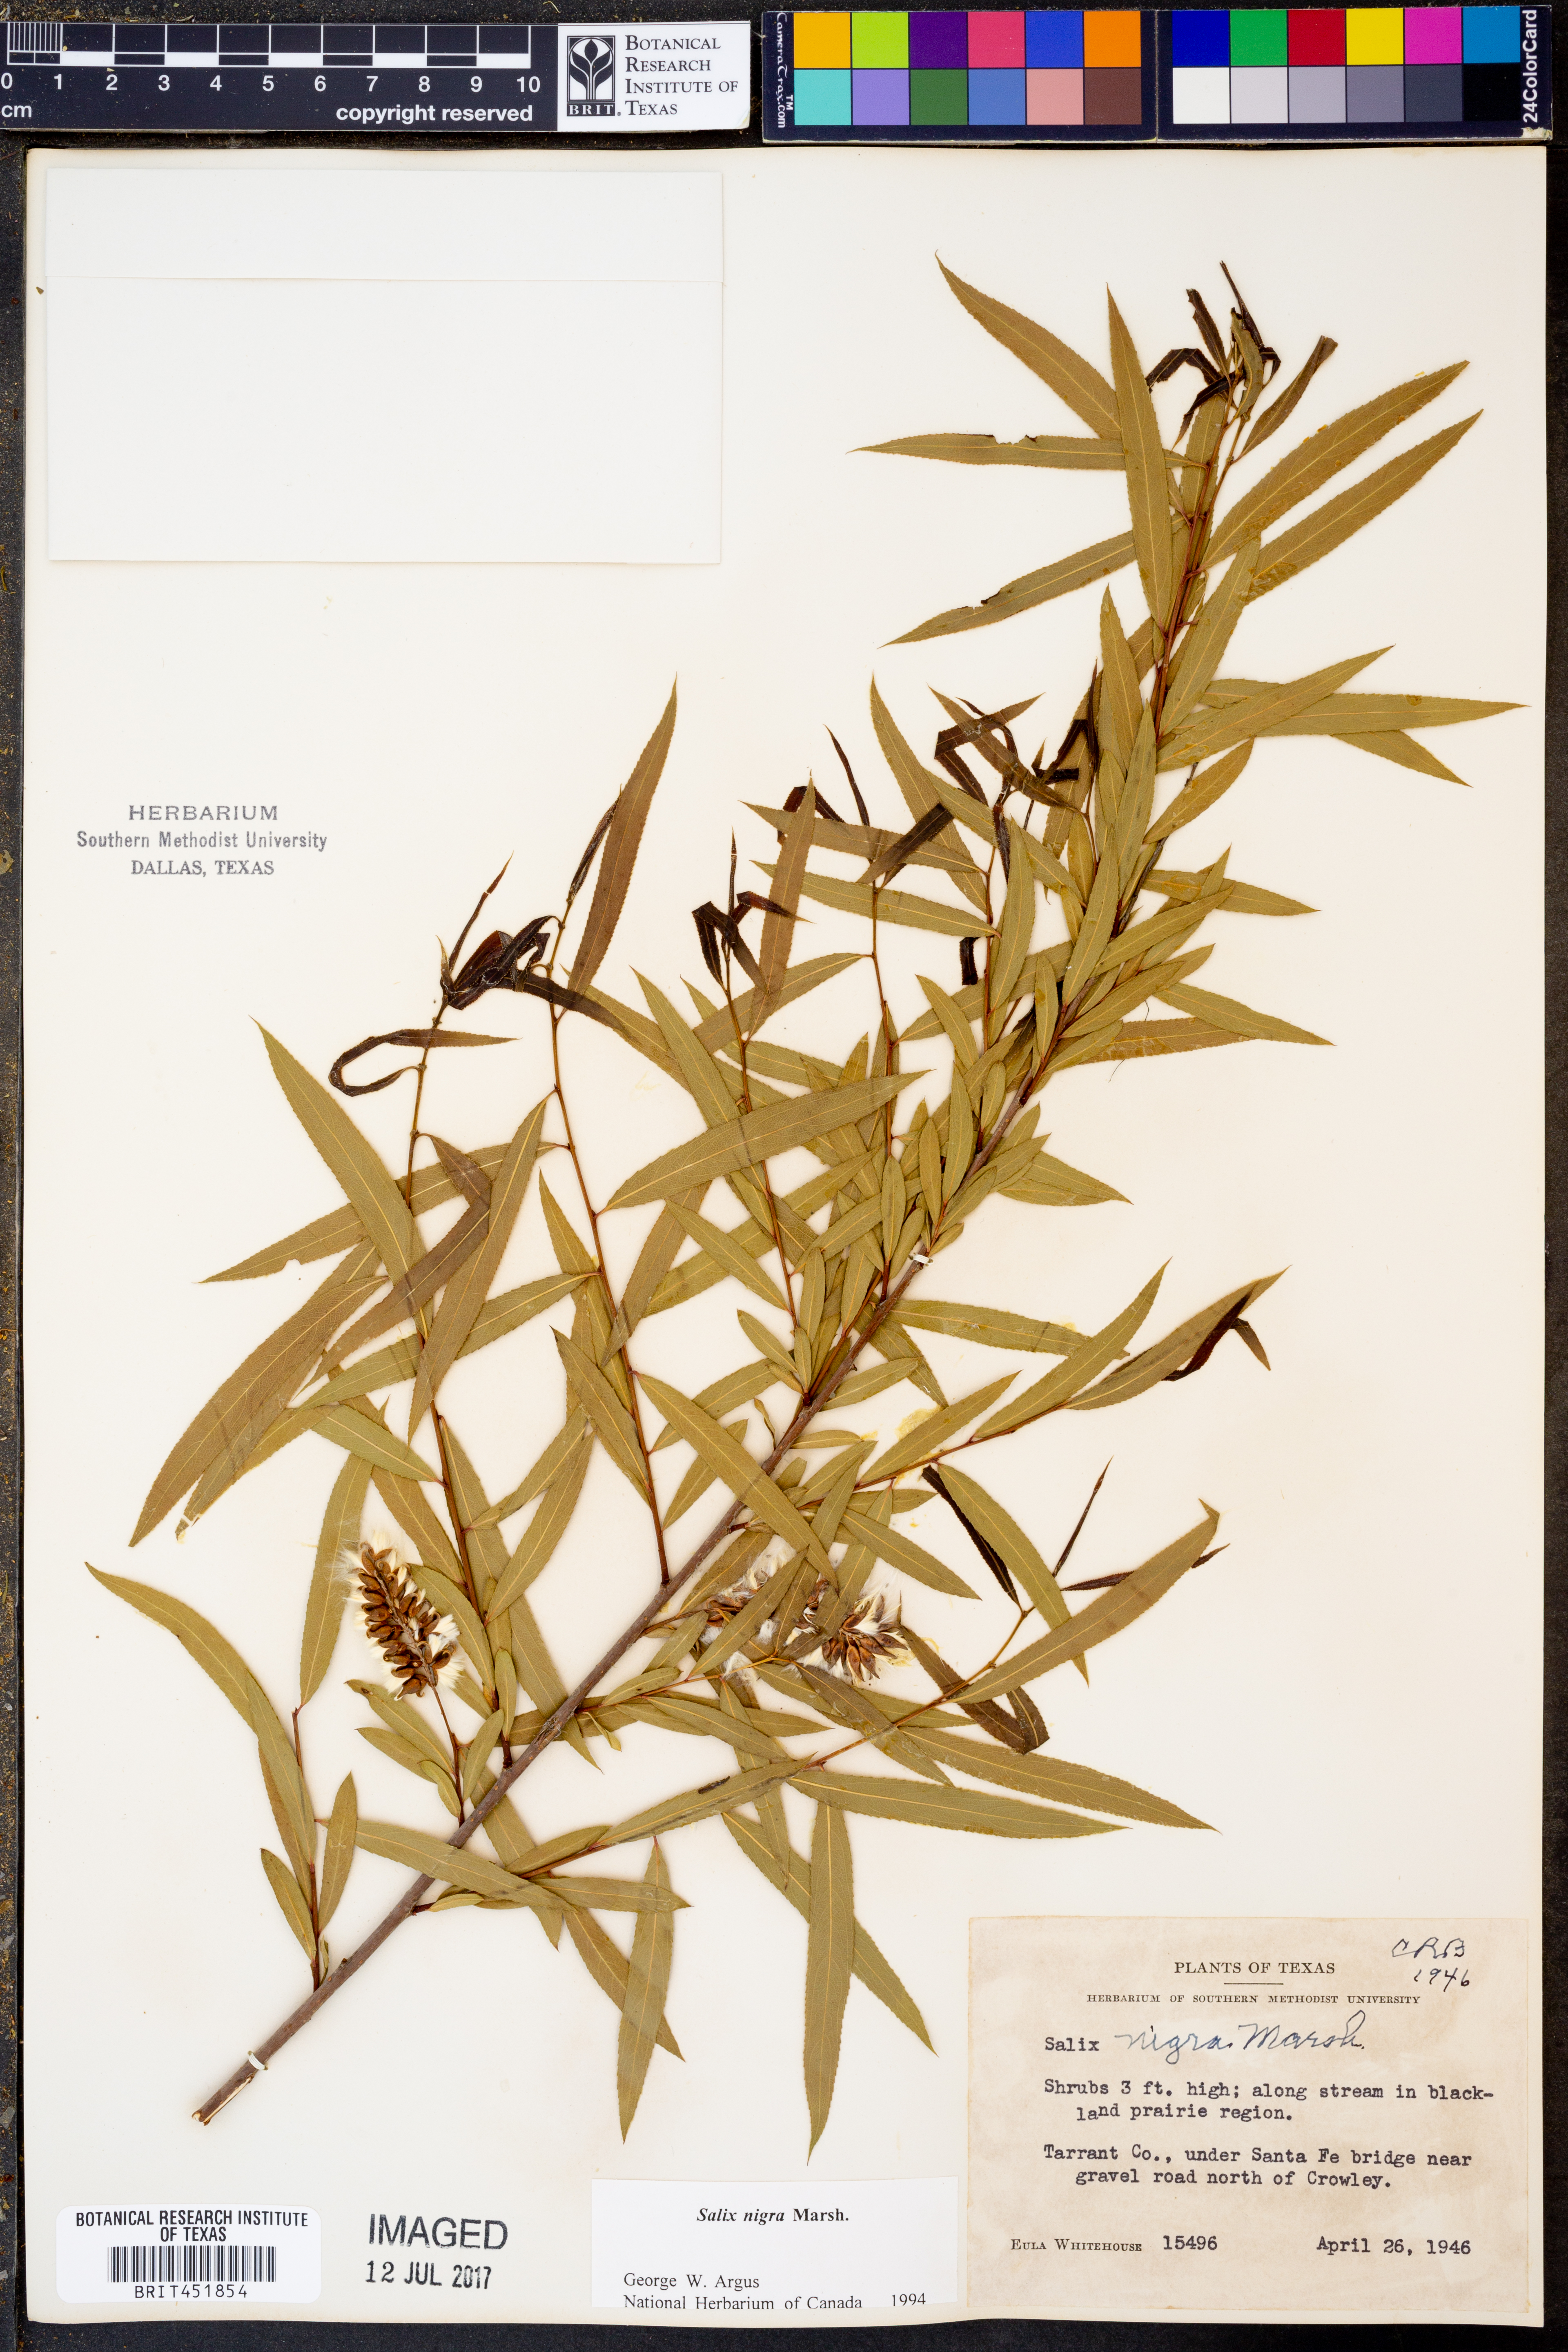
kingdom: Plantae
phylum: Tracheophyta
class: Magnoliopsida
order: Malpighiales
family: Salicaceae
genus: Salix
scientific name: Salix nigra
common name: Black willow
